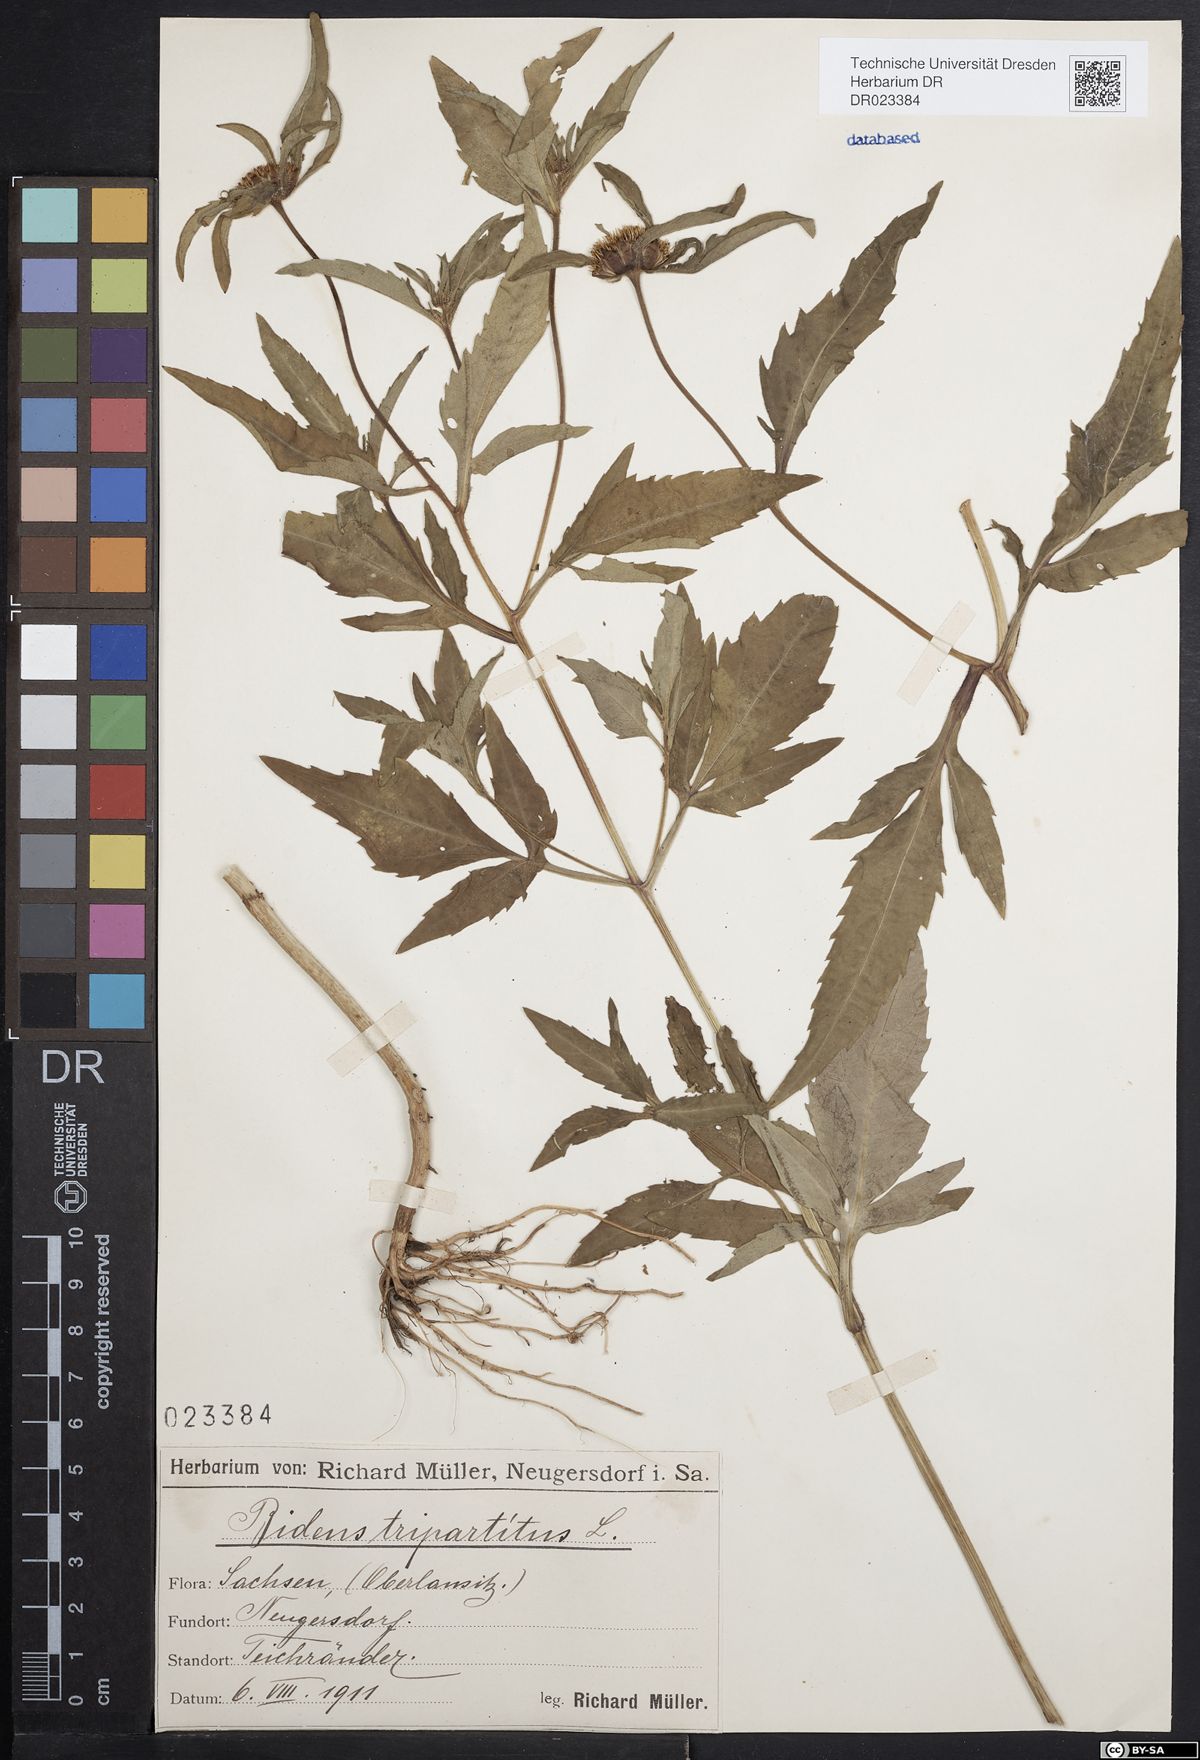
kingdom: Plantae
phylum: Tracheophyta
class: Magnoliopsida
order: Asterales
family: Asteraceae
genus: Bidens
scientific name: Bidens tripartita
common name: Trifid bur-marigold
